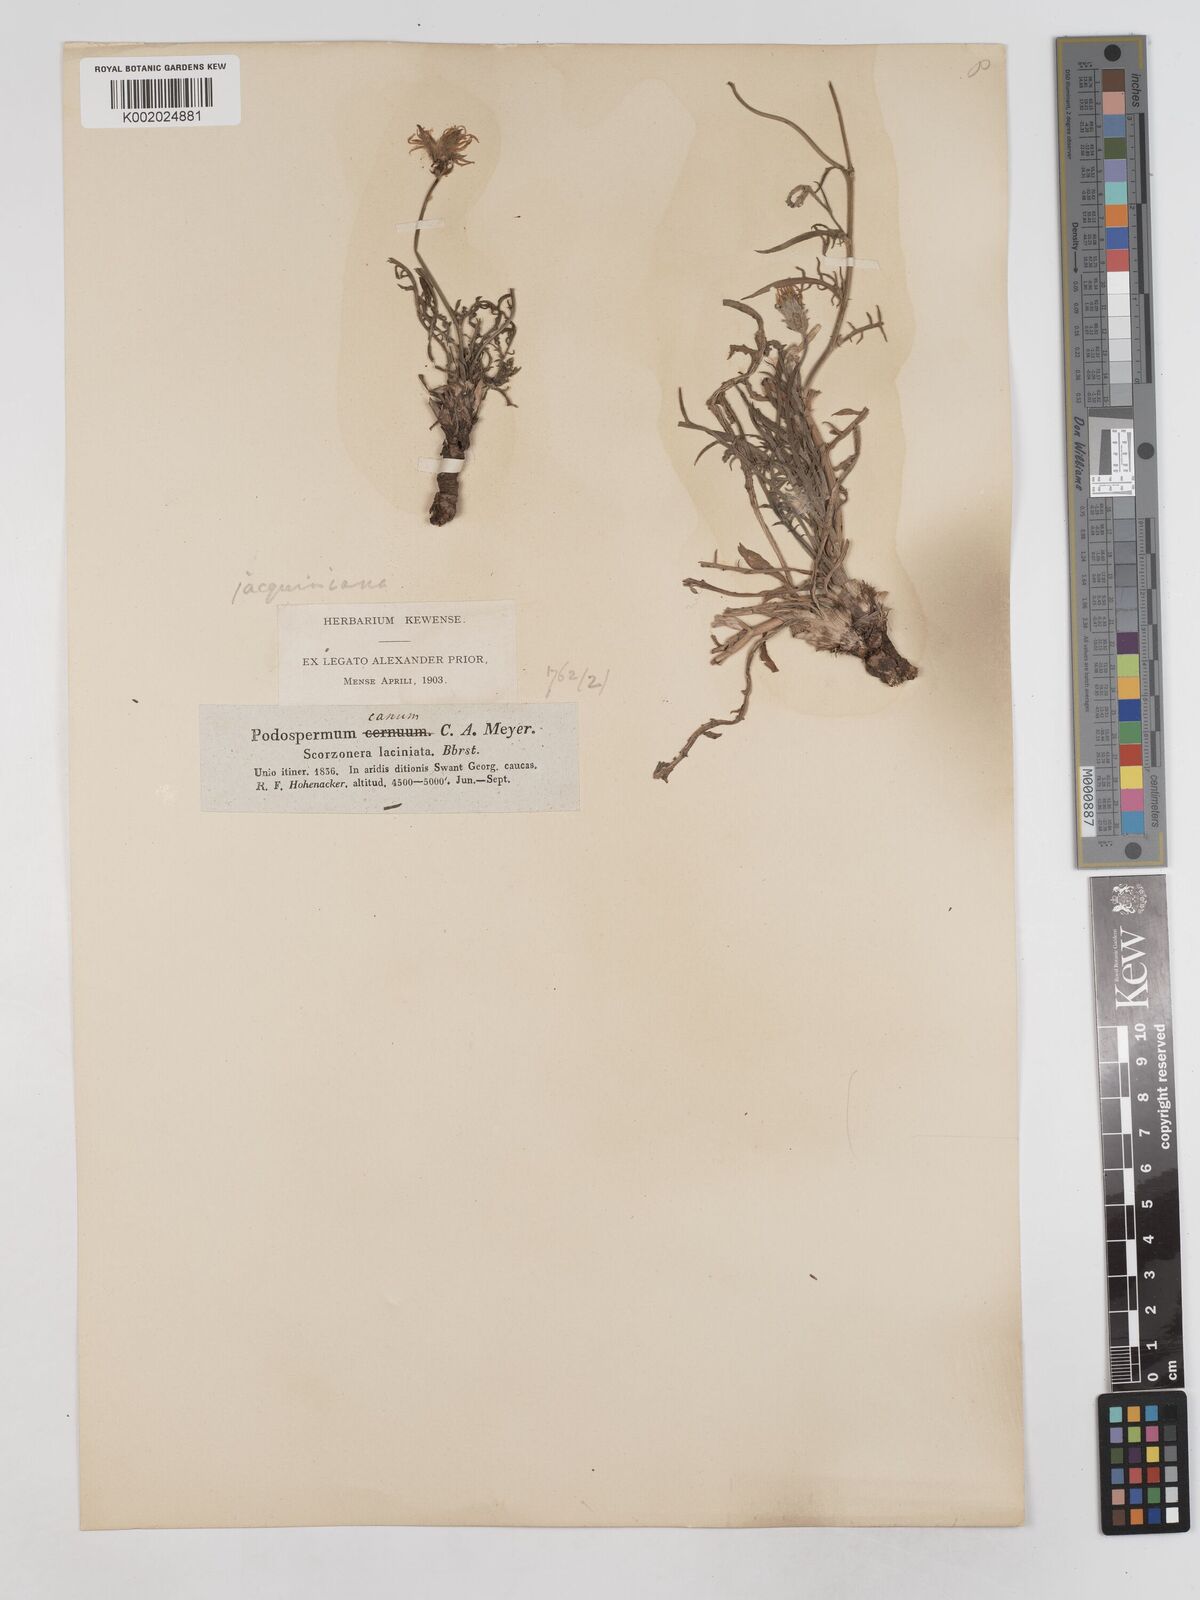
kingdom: Plantae
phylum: Tracheophyta
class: Magnoliopsida
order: Asterales
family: Asteraceae
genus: Scorzonera
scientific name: Scorzonera alpigena
